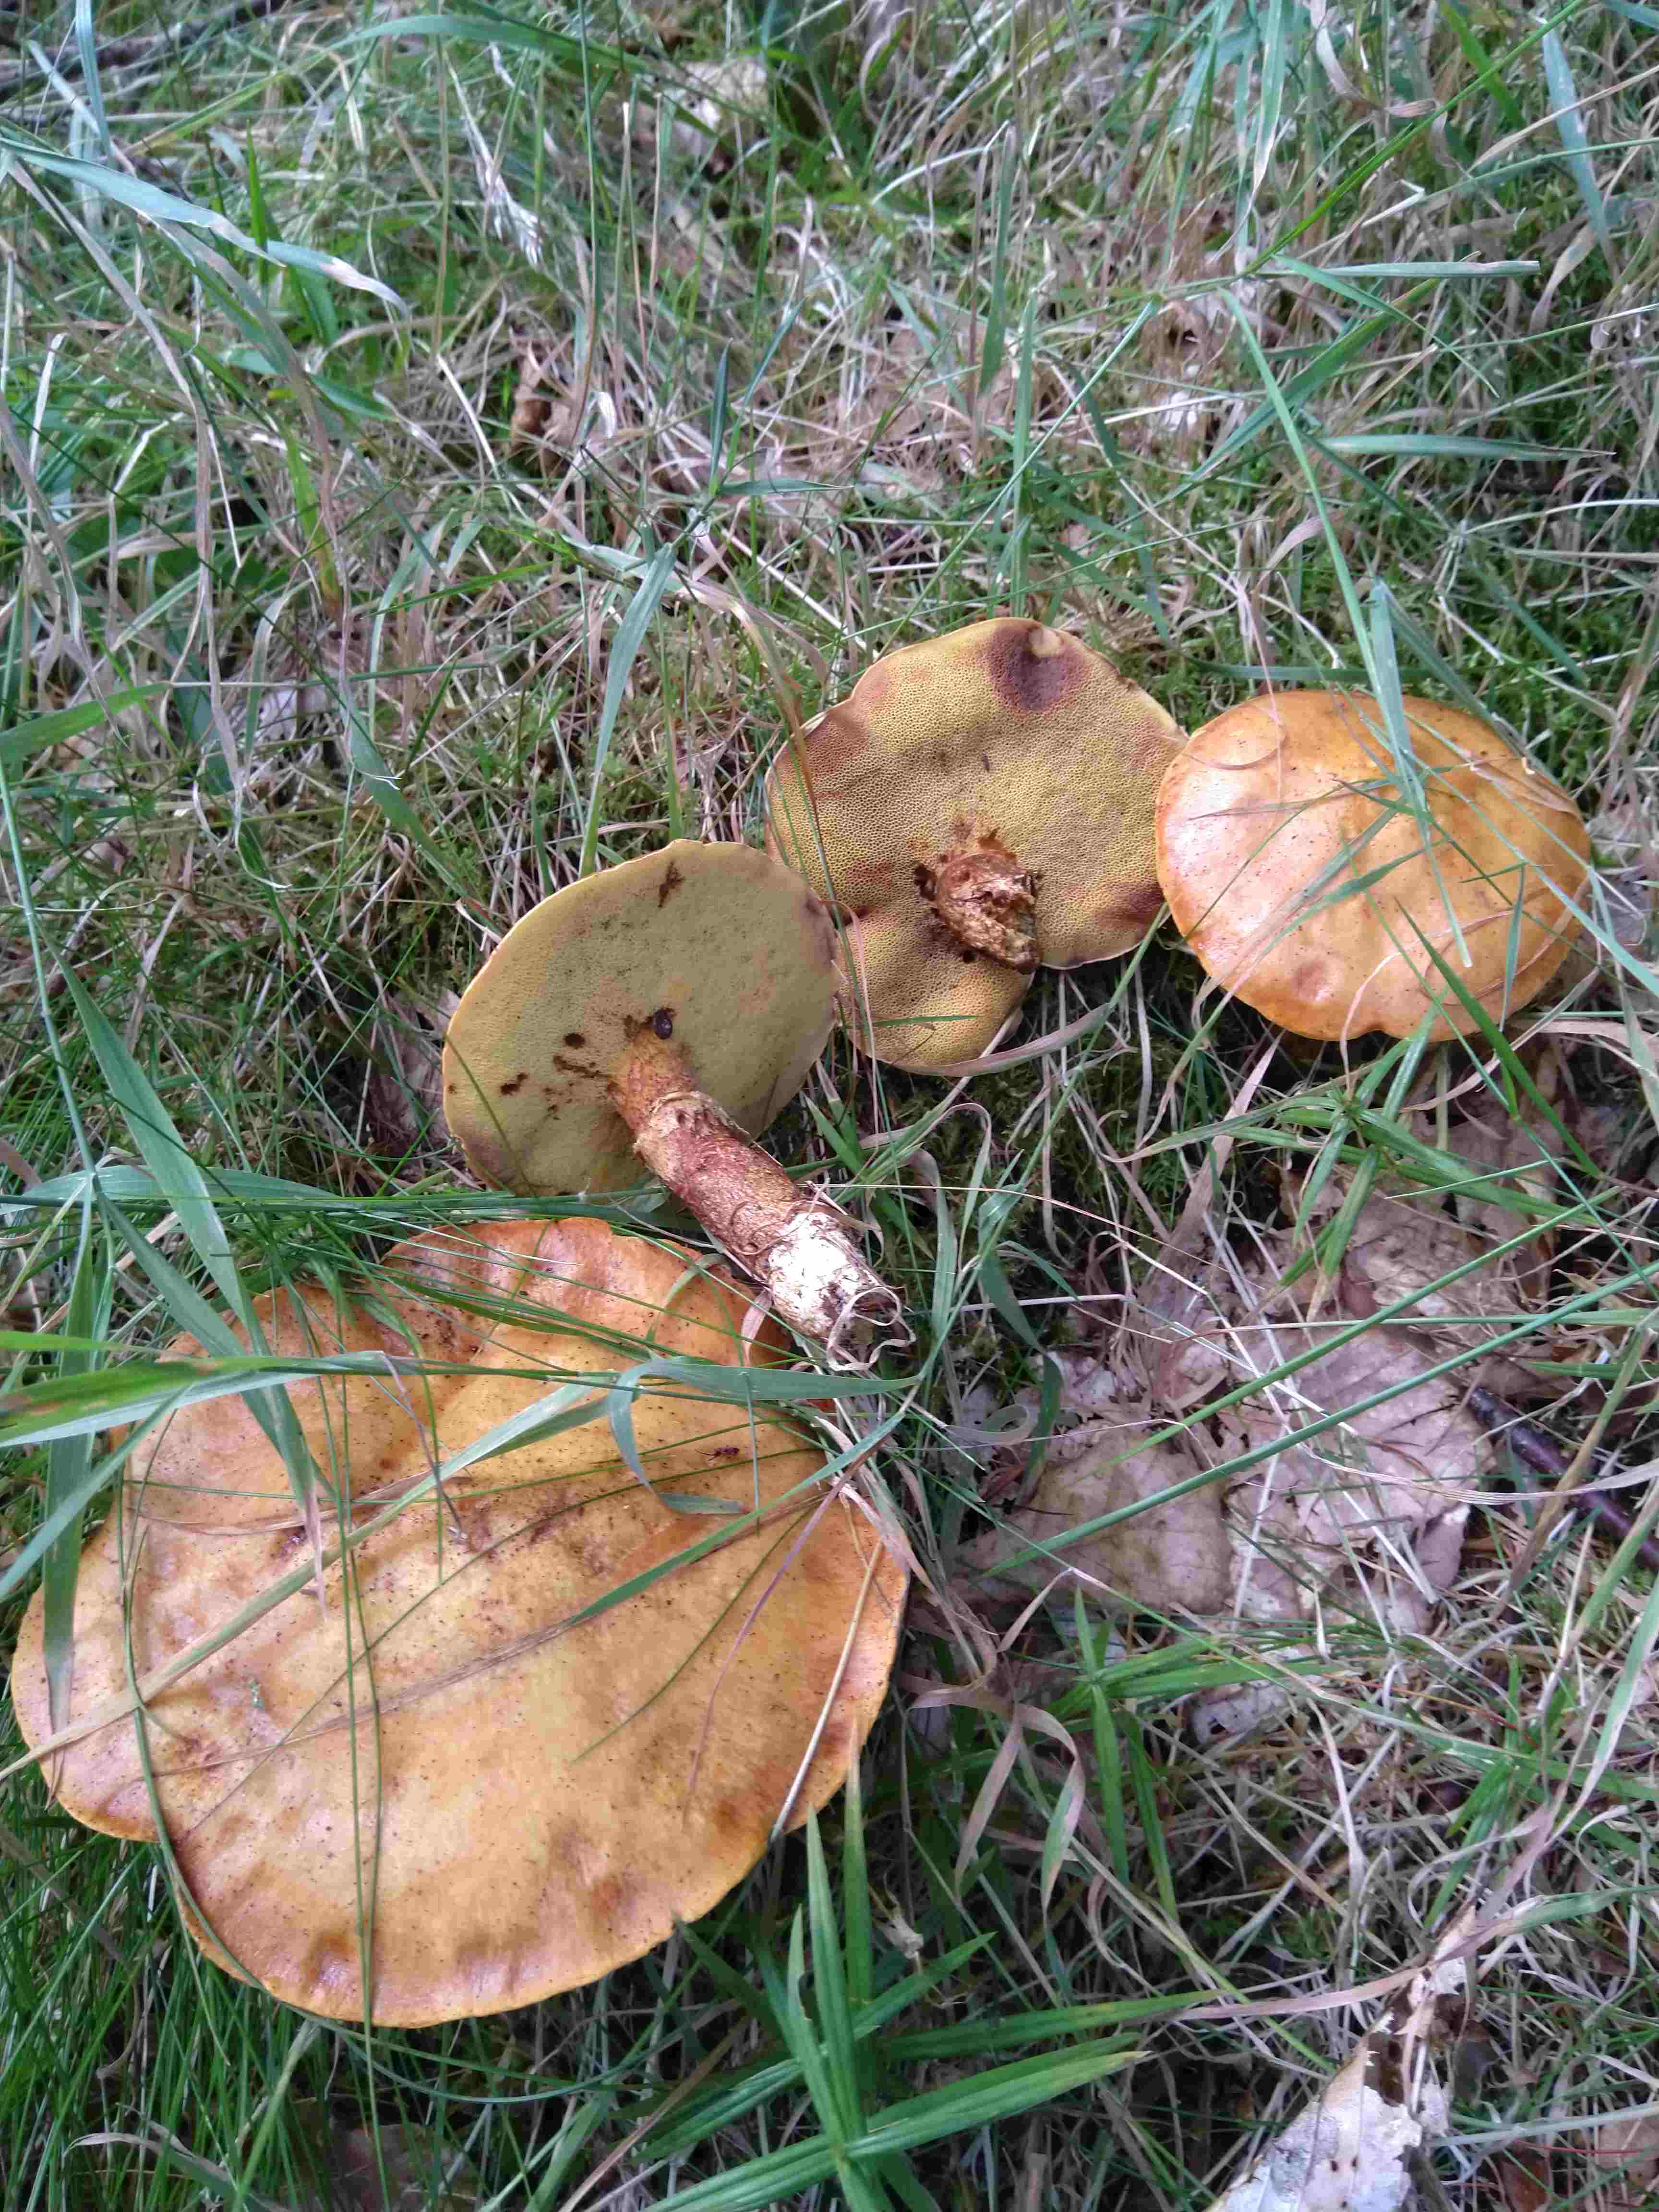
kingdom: Fungi
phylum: Basidiomycota
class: Agaricomycetes
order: Boletales
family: Suillaceae
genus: Suillus
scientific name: Suillus grevillei
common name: lærke-slimrørhat
